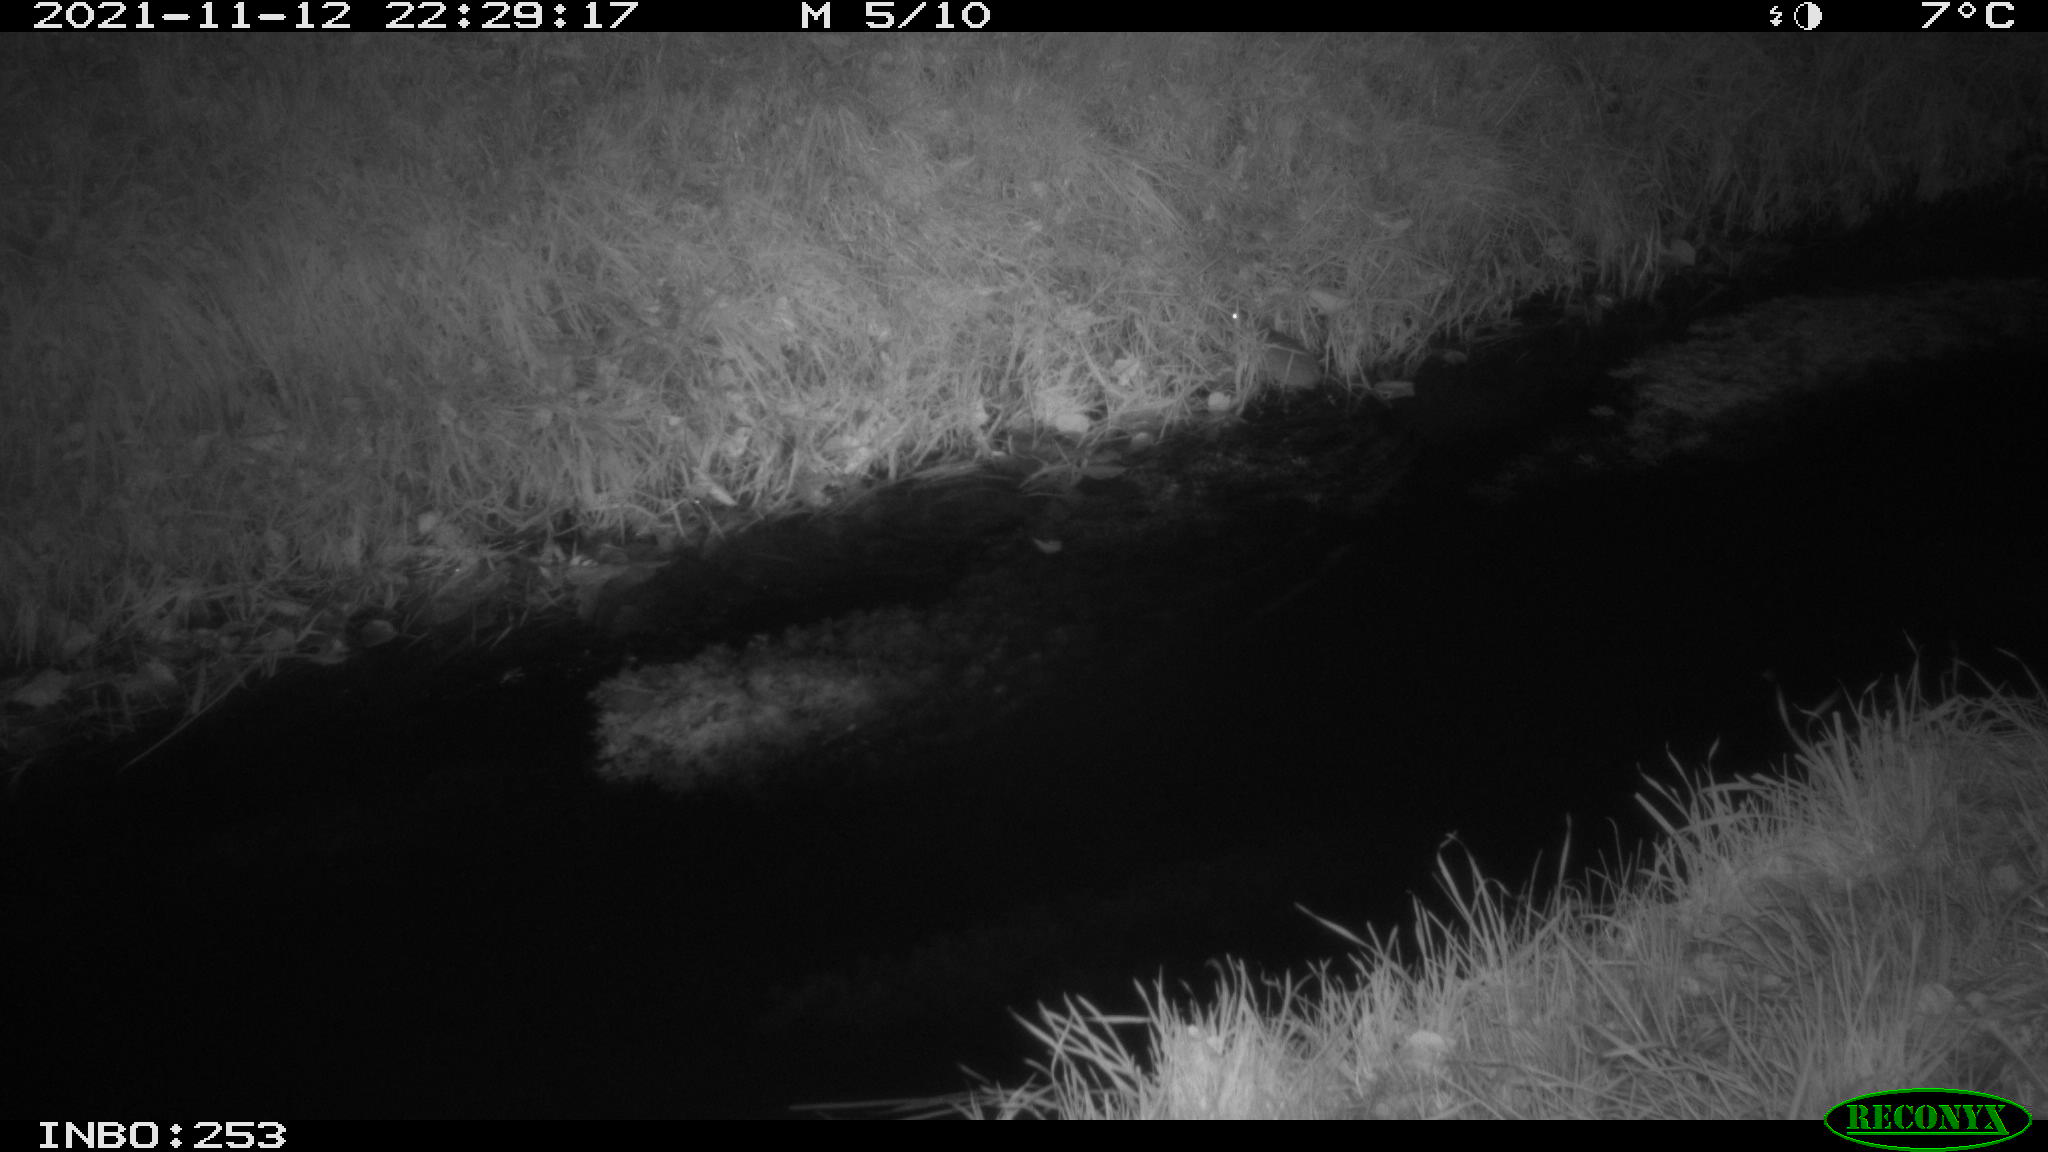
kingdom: Animalia
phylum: Chordata
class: Mammalia
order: Rodentia
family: Muridae
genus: Rattus
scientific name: Rattus norvegicus
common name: Brown rat
